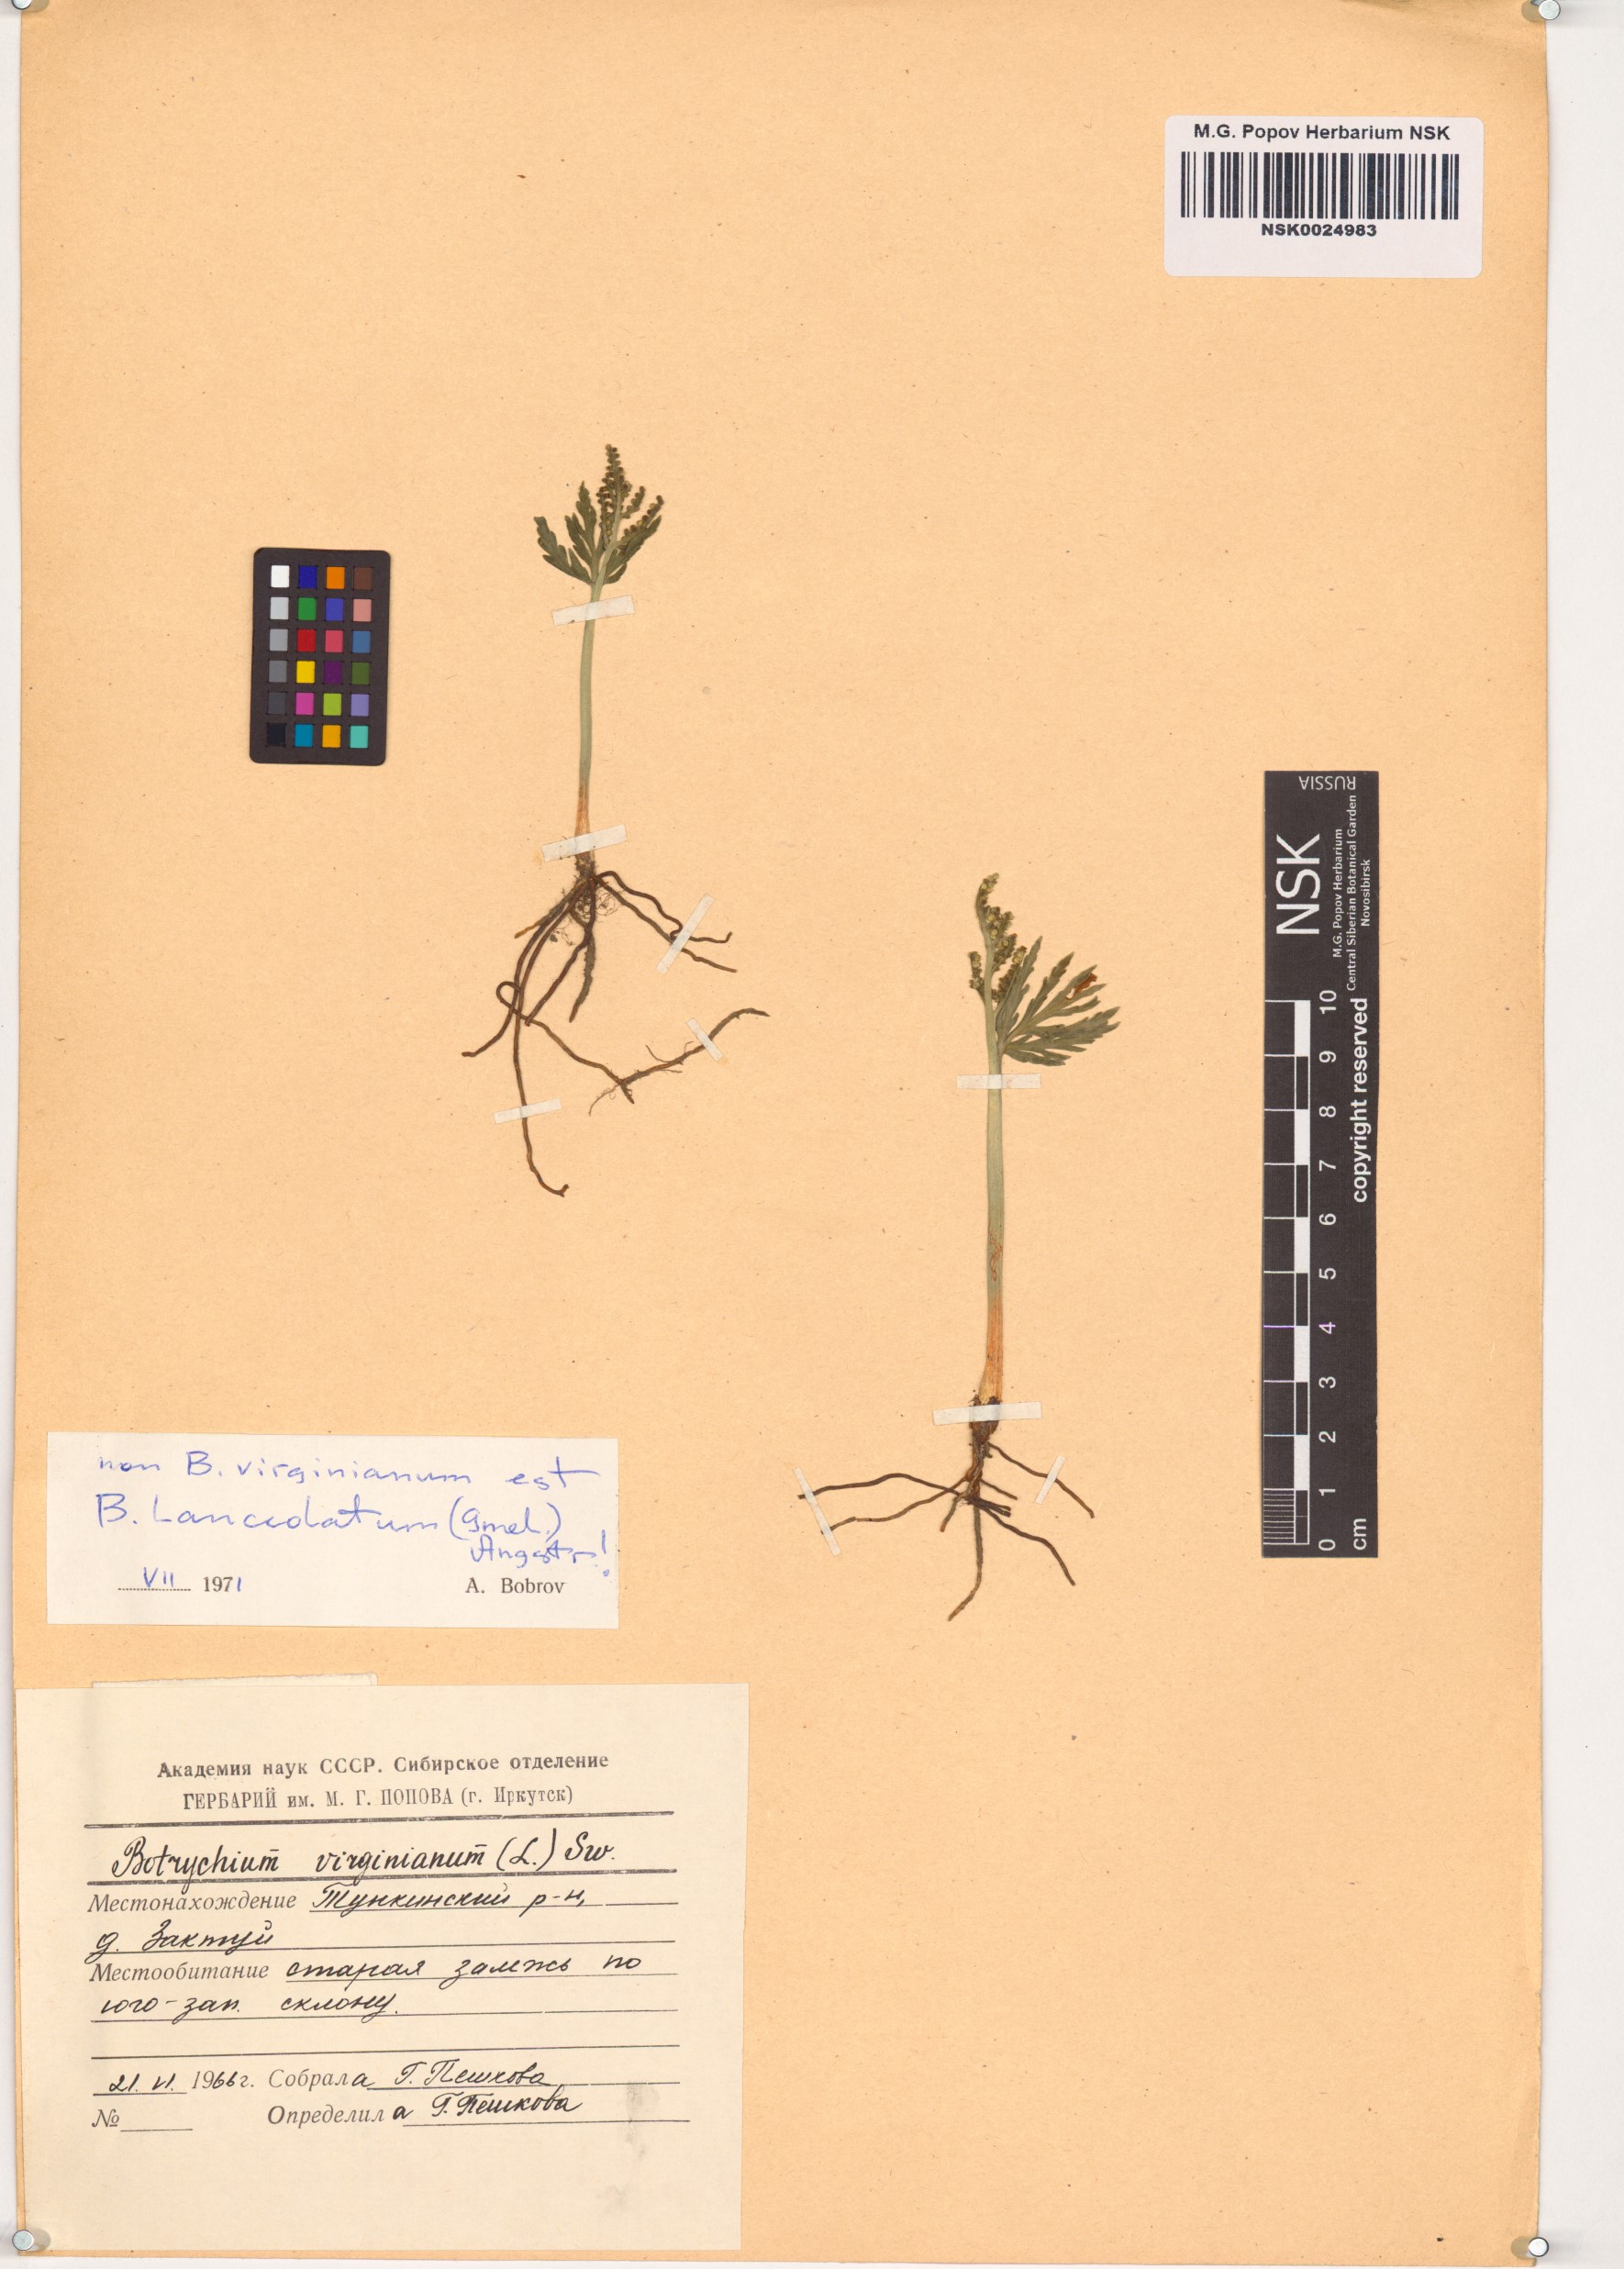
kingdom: Plantae
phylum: Tracheophyta
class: Polypodiopsida
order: Ophioglossales
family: Ophioglossaceae
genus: Botrychium
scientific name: Botrychium lanceolatum
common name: Lance-leaved moonwort
